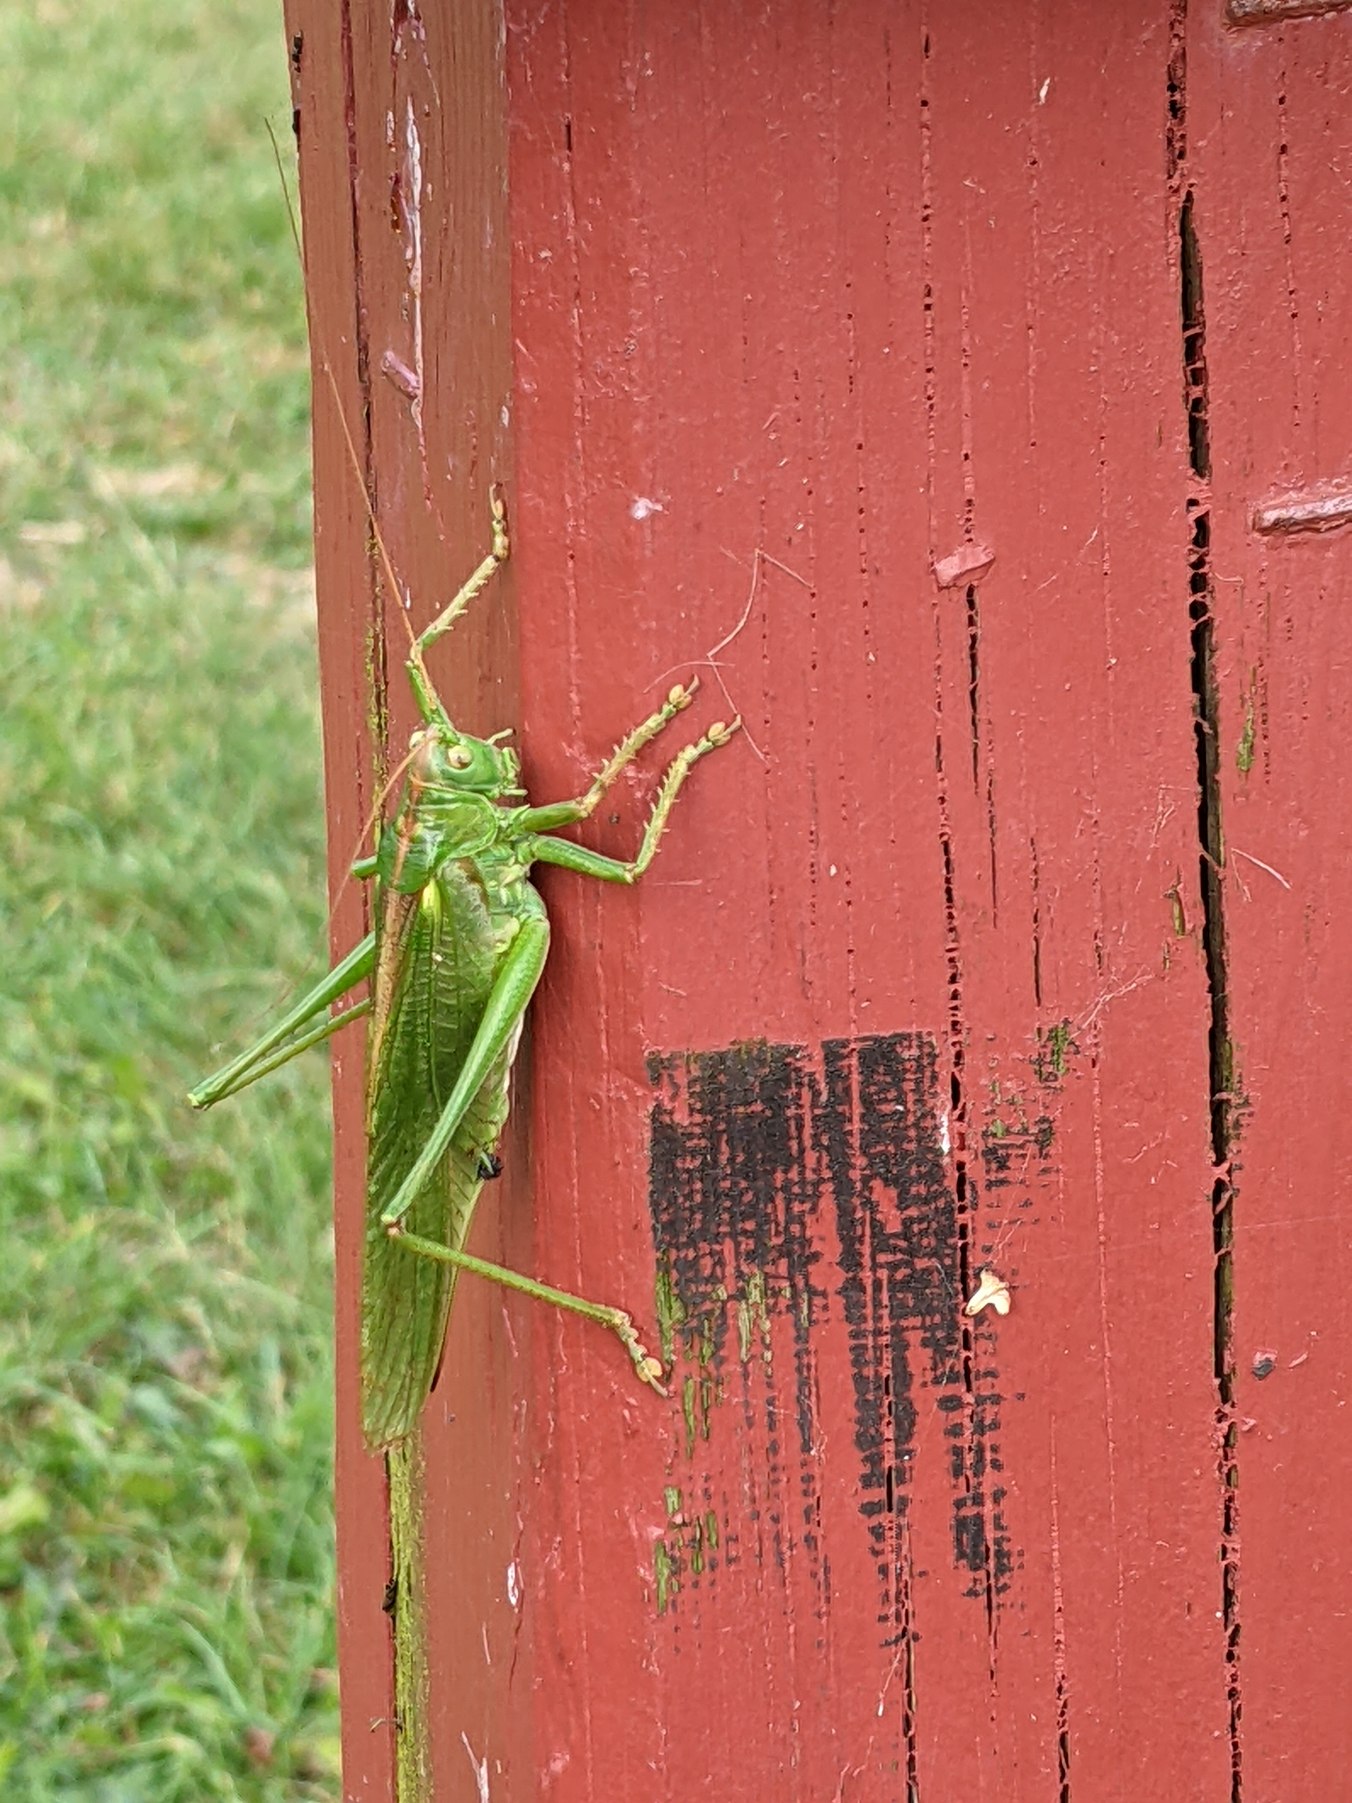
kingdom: Animalia
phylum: Arthropoda
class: Insecta
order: Orthoptera
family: Tettigoniidae
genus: Tettigonia
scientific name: Tettigonia viridissima
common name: Stor grøn løvgræshoppe
